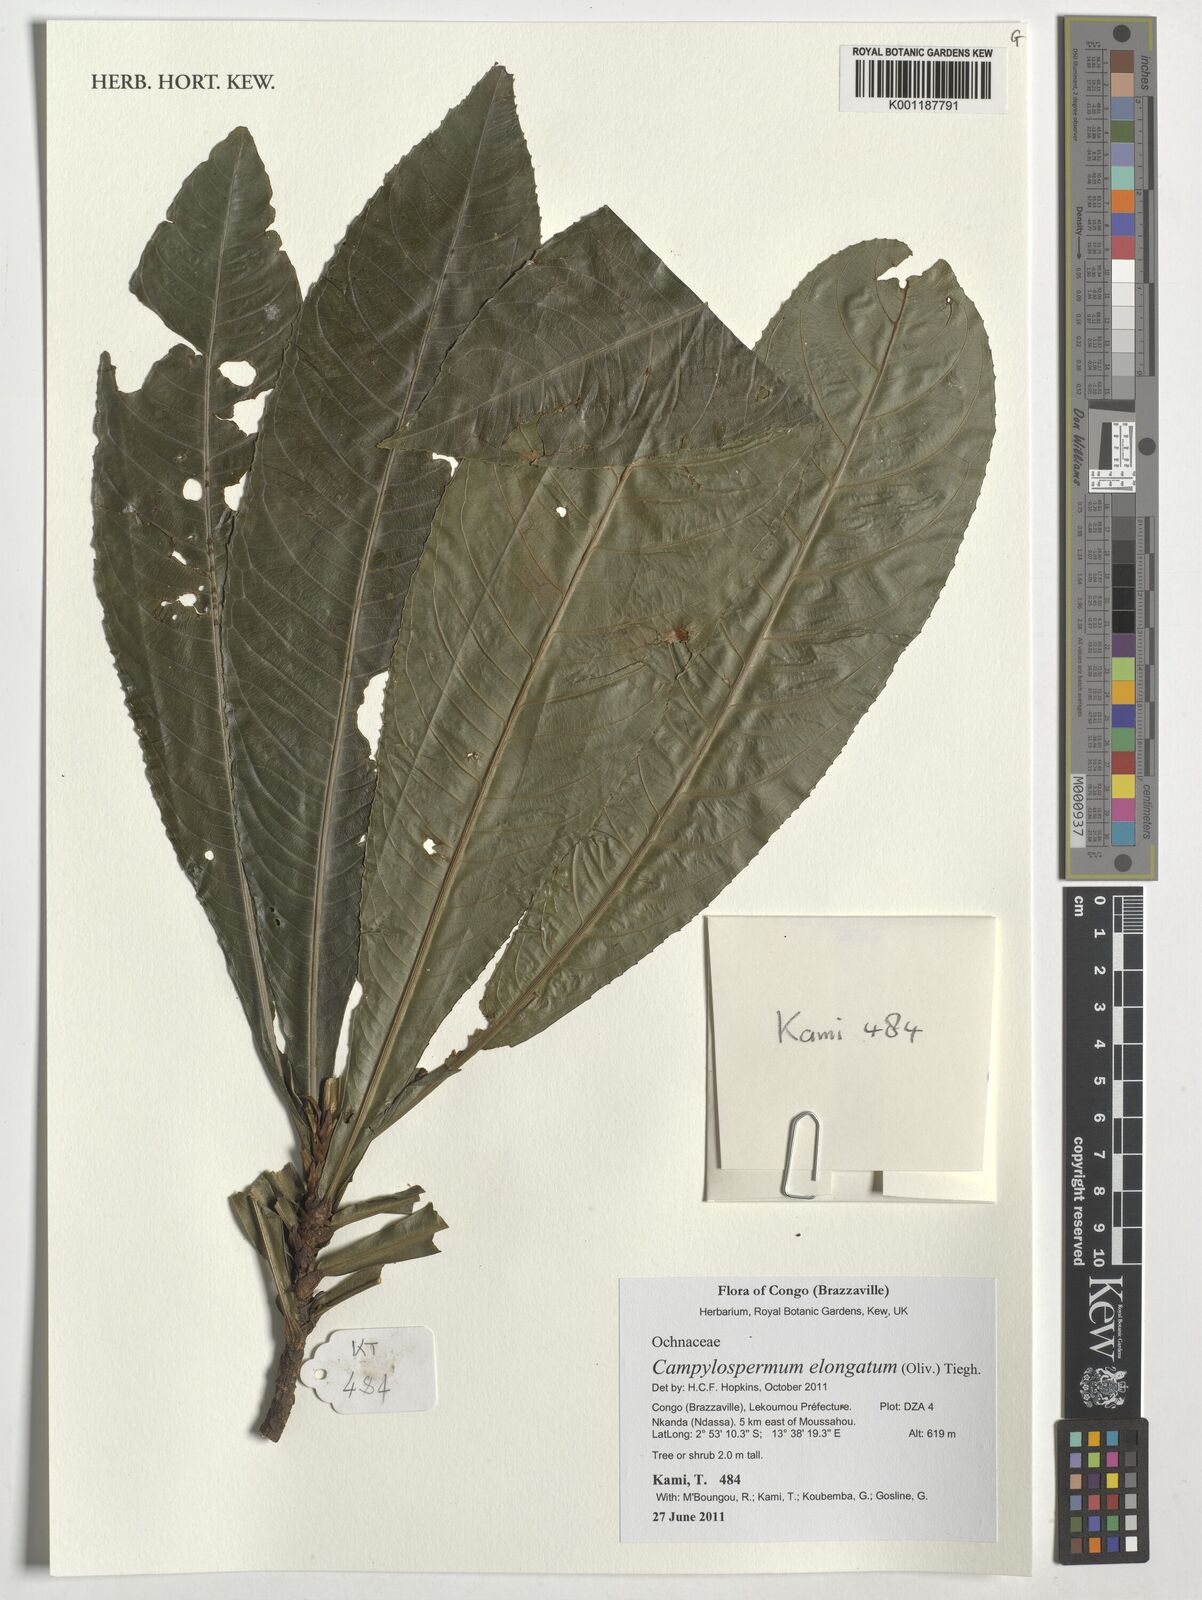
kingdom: Plantae
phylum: Tracheophyta
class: Magnoliopsida
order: Malpighiales
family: Ochnaceae
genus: Gomphia
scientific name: Gomphia elongata
